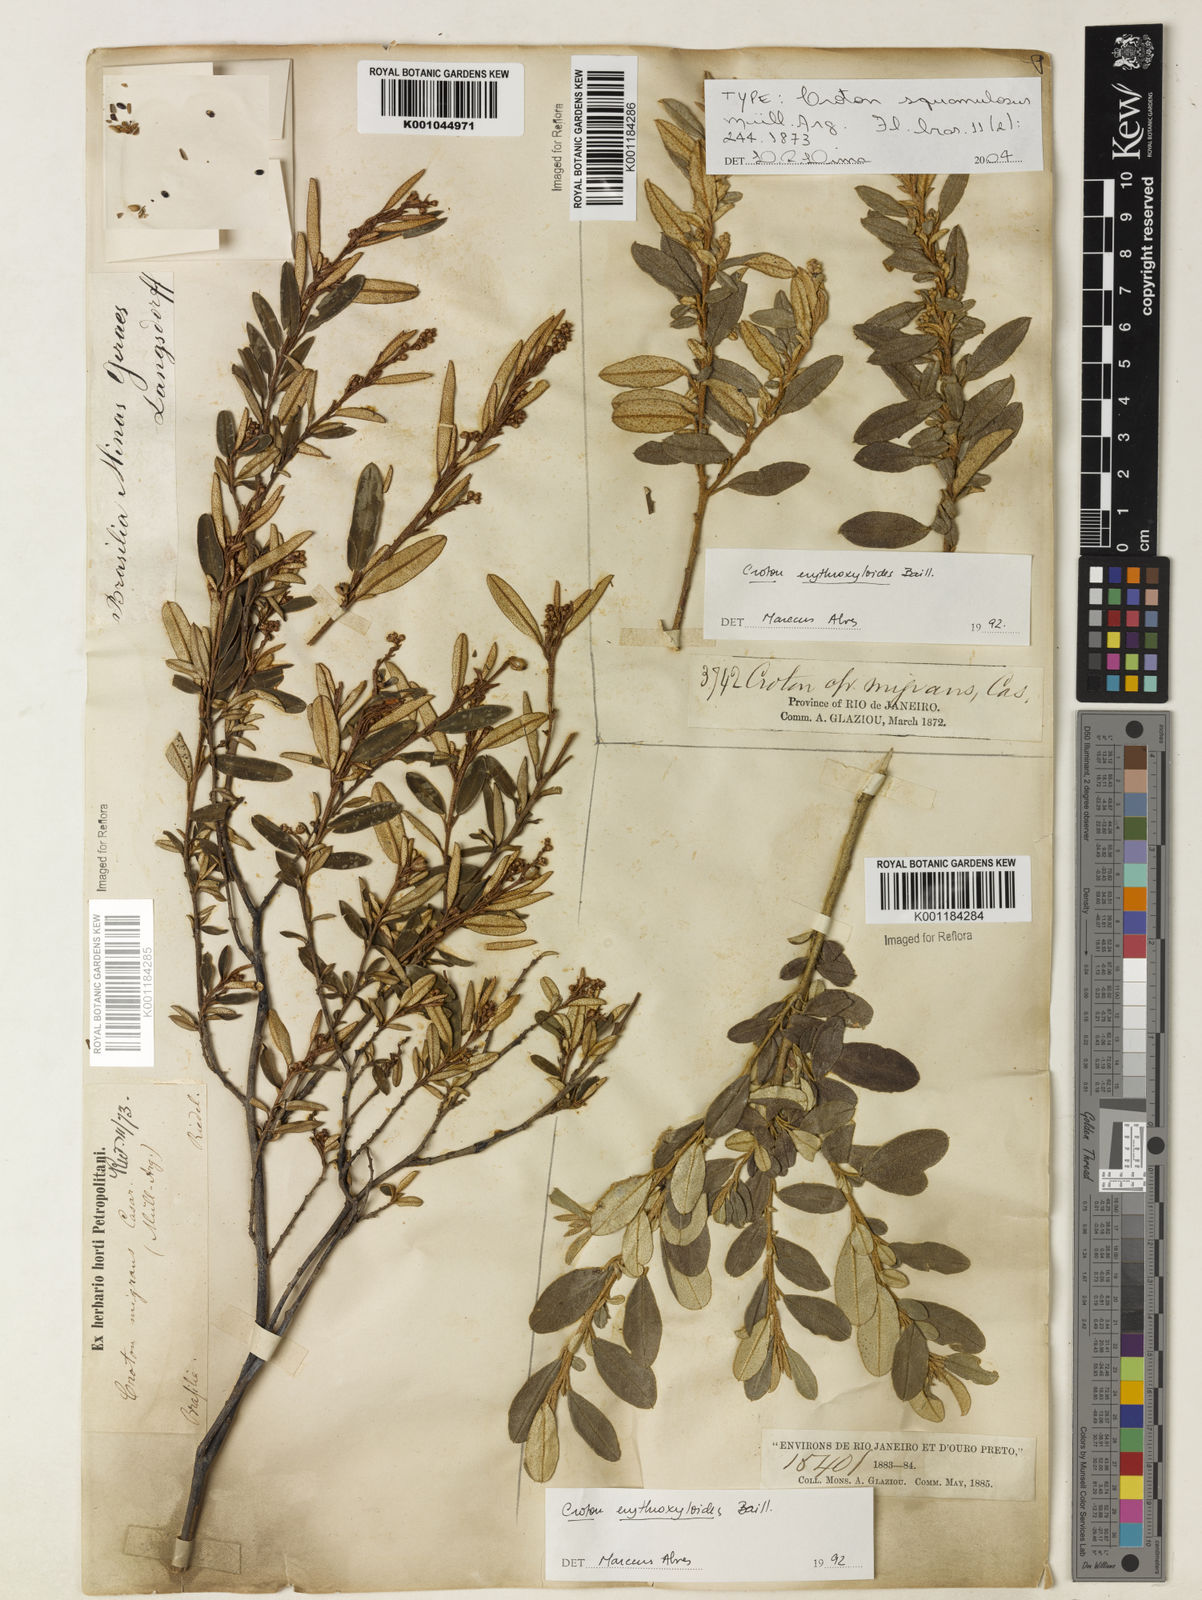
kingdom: Plantae
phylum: Tracheophyta
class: Magnoliopsida
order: Malpighiales
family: Euphorbiaceae
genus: Croton
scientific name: Croton splendidus
